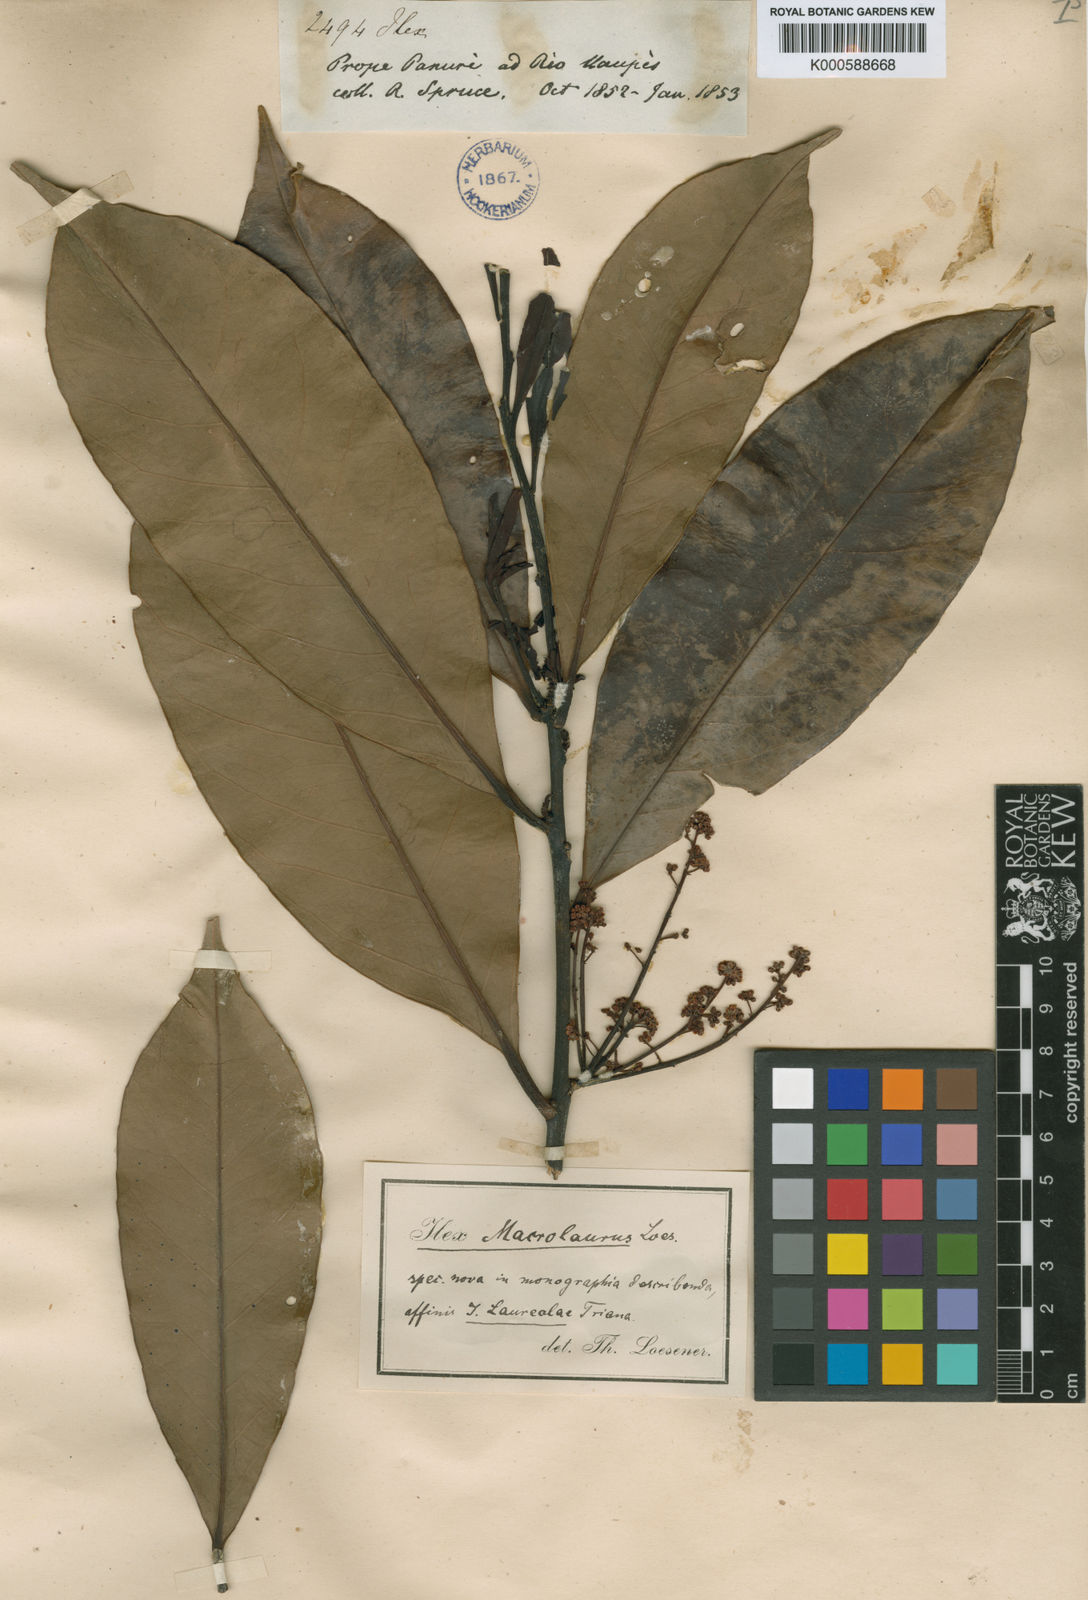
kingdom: Plantae
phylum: Tracheophyta
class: Magnoliopsida
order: Aquifoliales
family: Aquifoliaceae
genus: Ilex
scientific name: Ilex laureola
